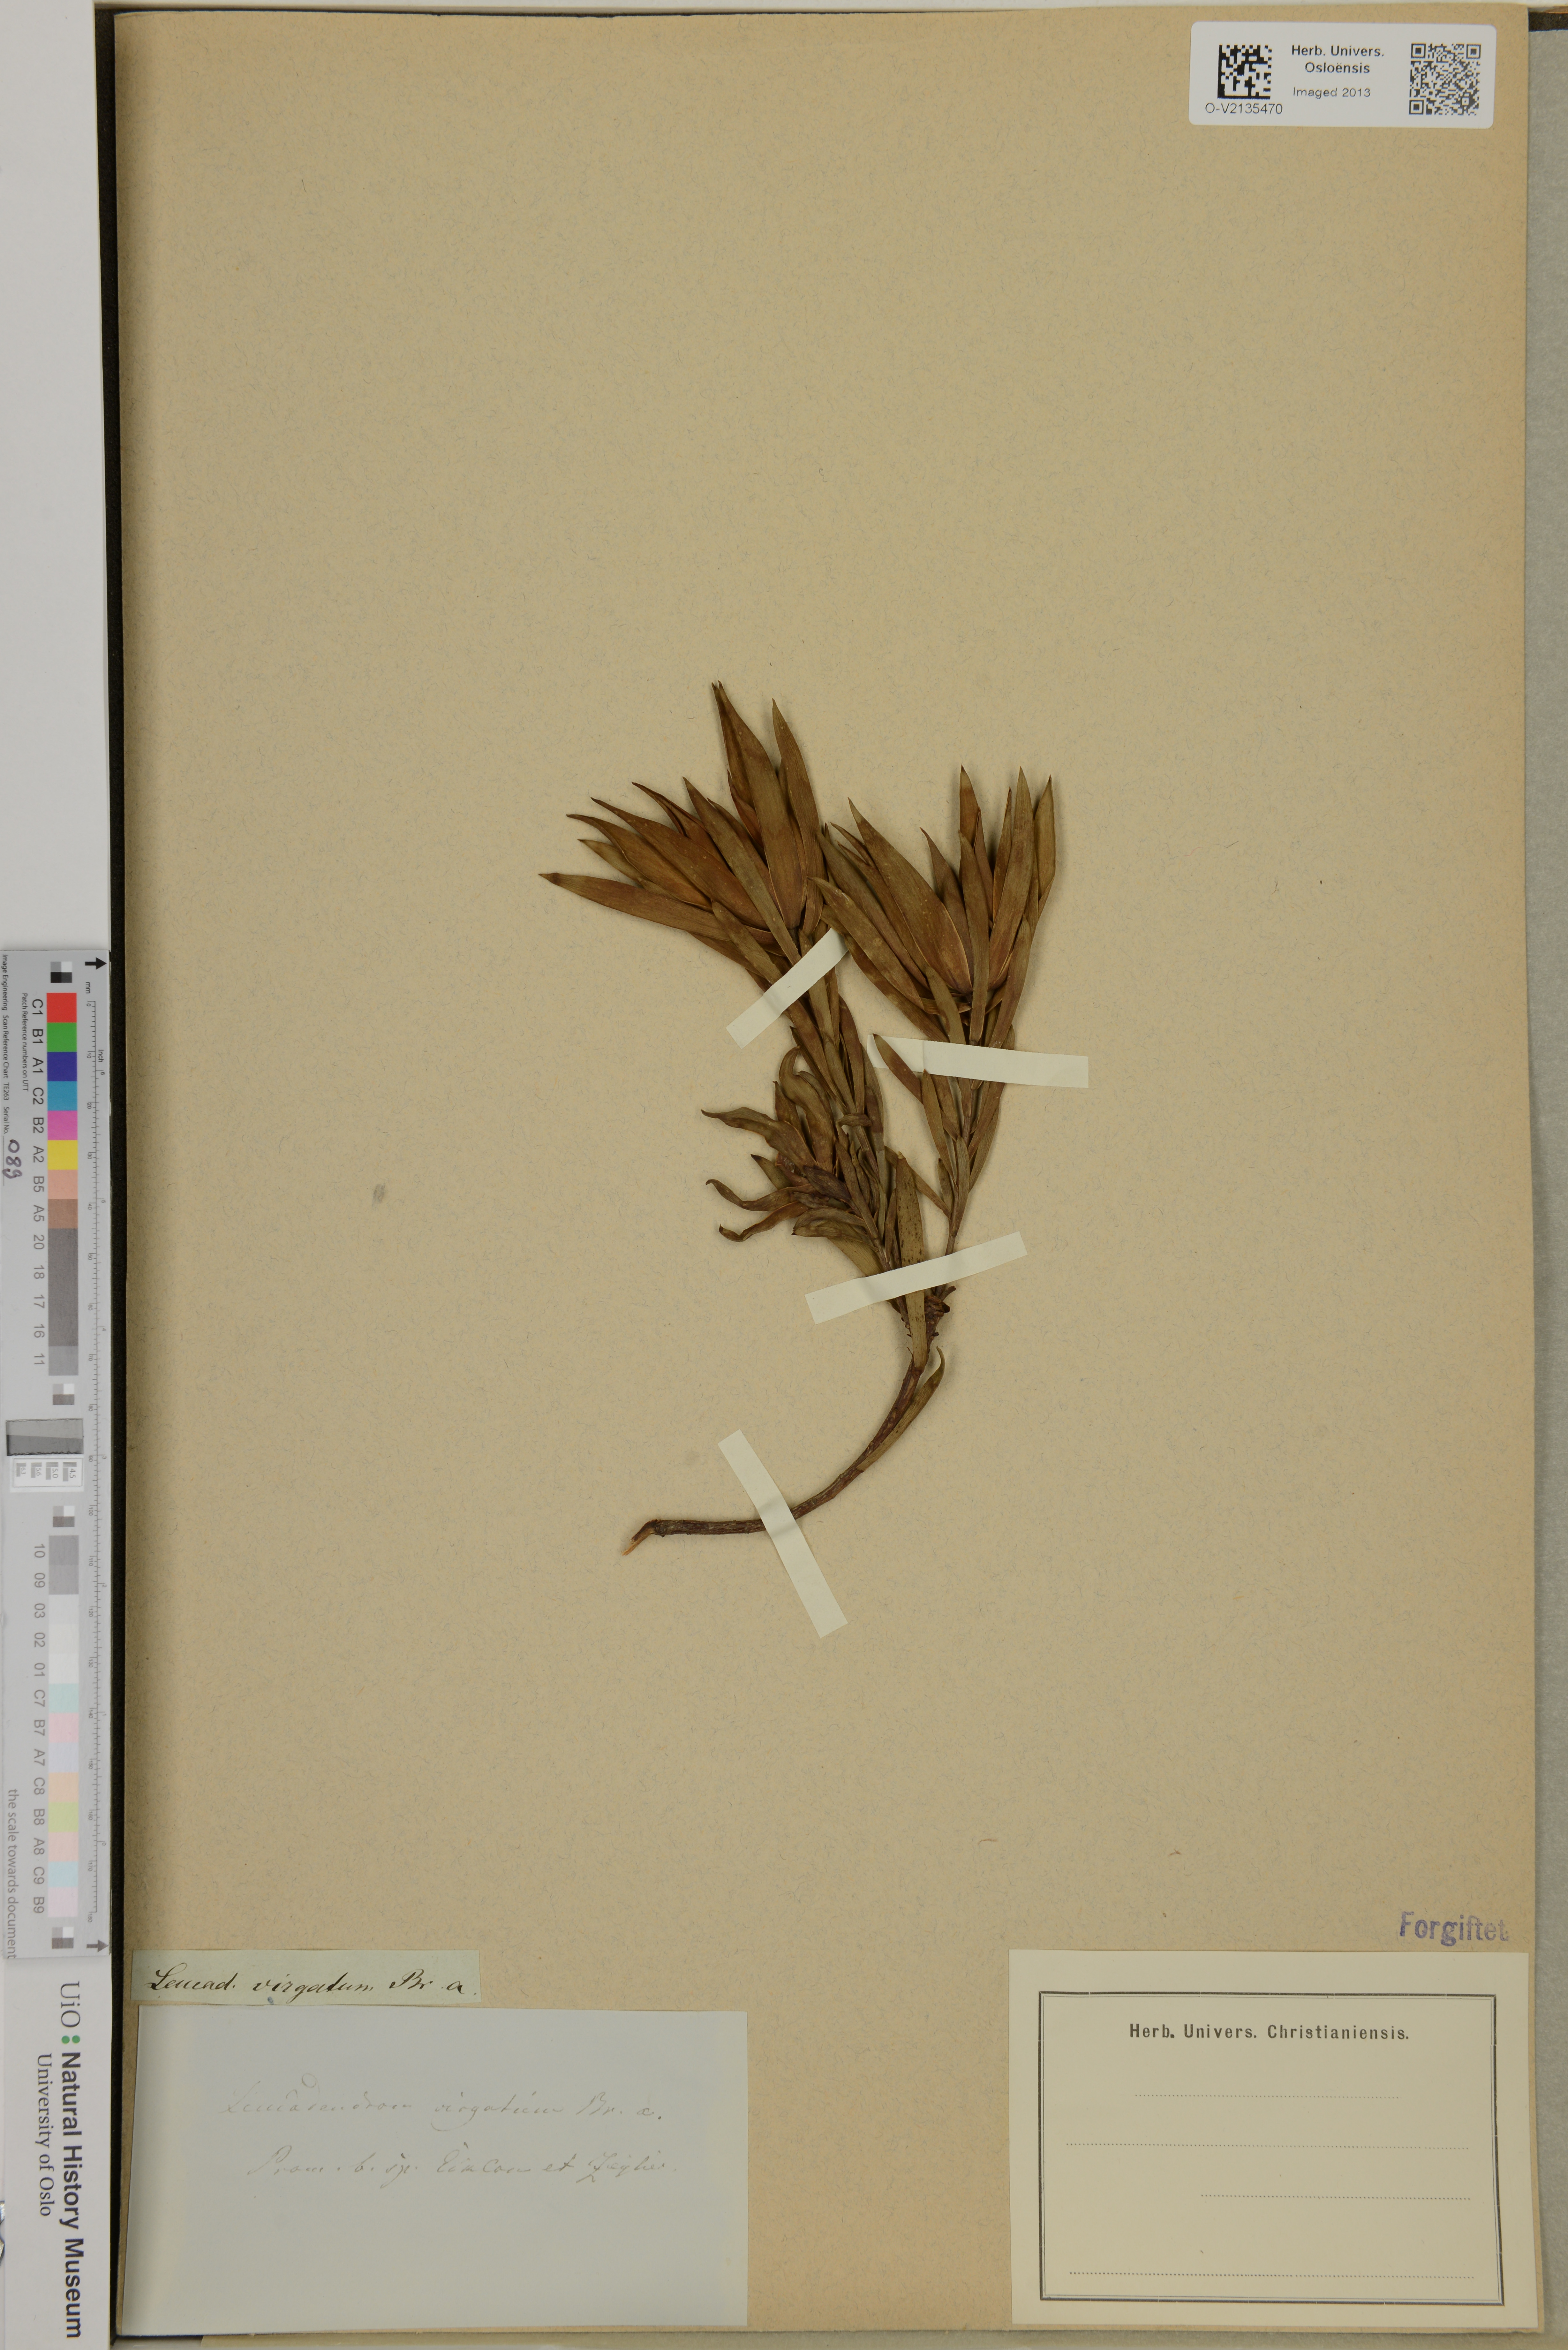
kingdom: Plantae
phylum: Tracheophyta
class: Magnoliopsida
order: Proteales
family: Proteaceae
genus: Leucadendron
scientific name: Leucadendron
